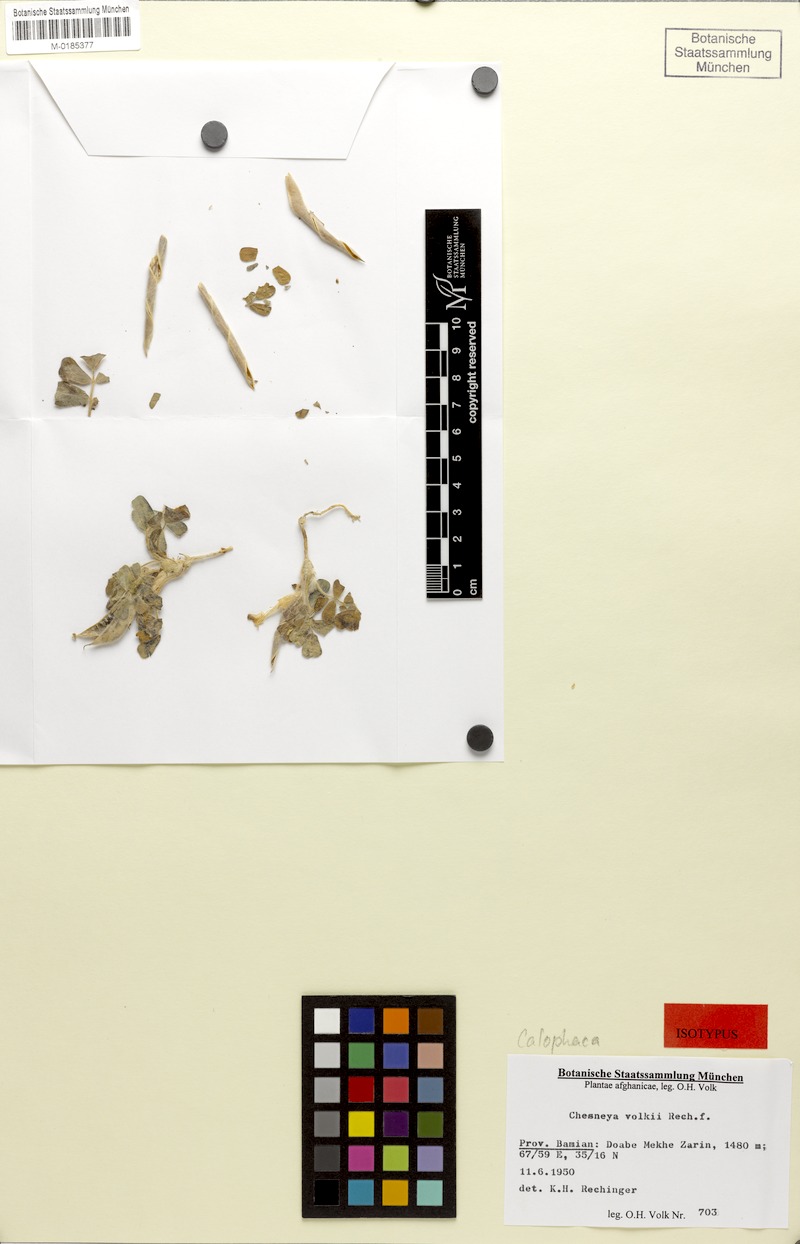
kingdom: Plantae
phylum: Tracheophyta
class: Magnoliopsida
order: Fabales
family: Fabaceae
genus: Chesneya
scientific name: Chesneya volkii
